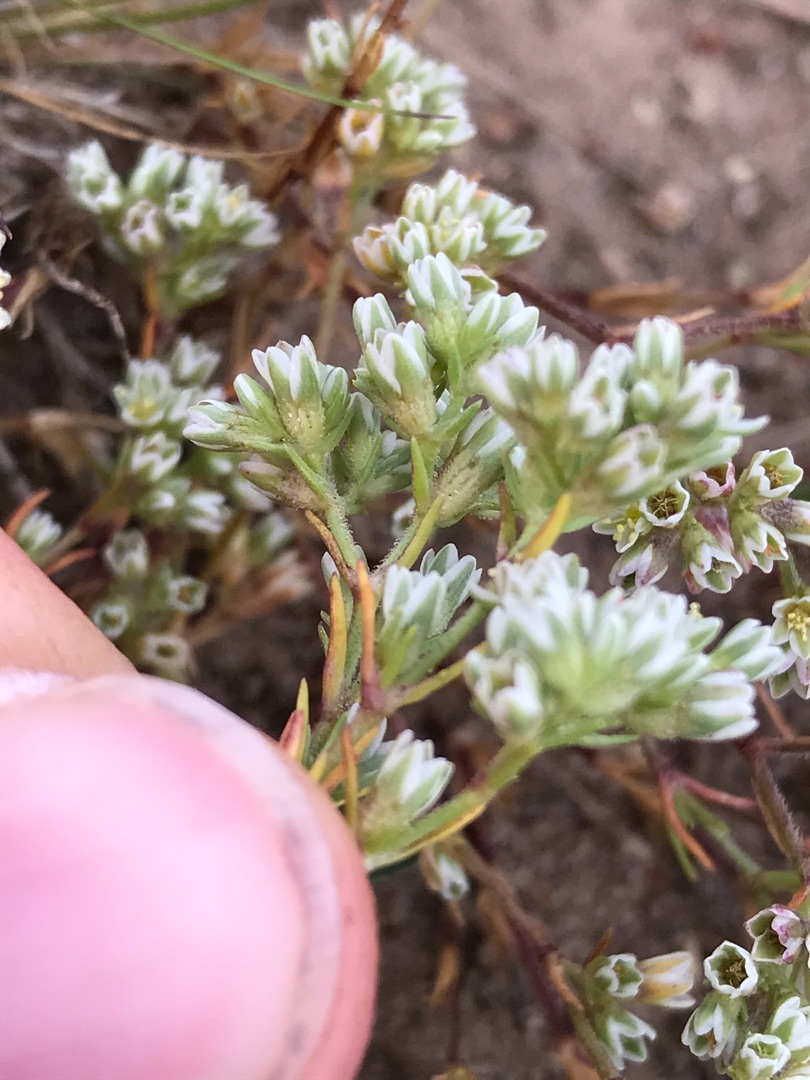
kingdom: Plantae
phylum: Tracheophyta
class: Magnoliopsida
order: Caryophyllales
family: Caryophyllaceae
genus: Scleranthus
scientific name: Scleranthus perennis
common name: Flerårig knavel
